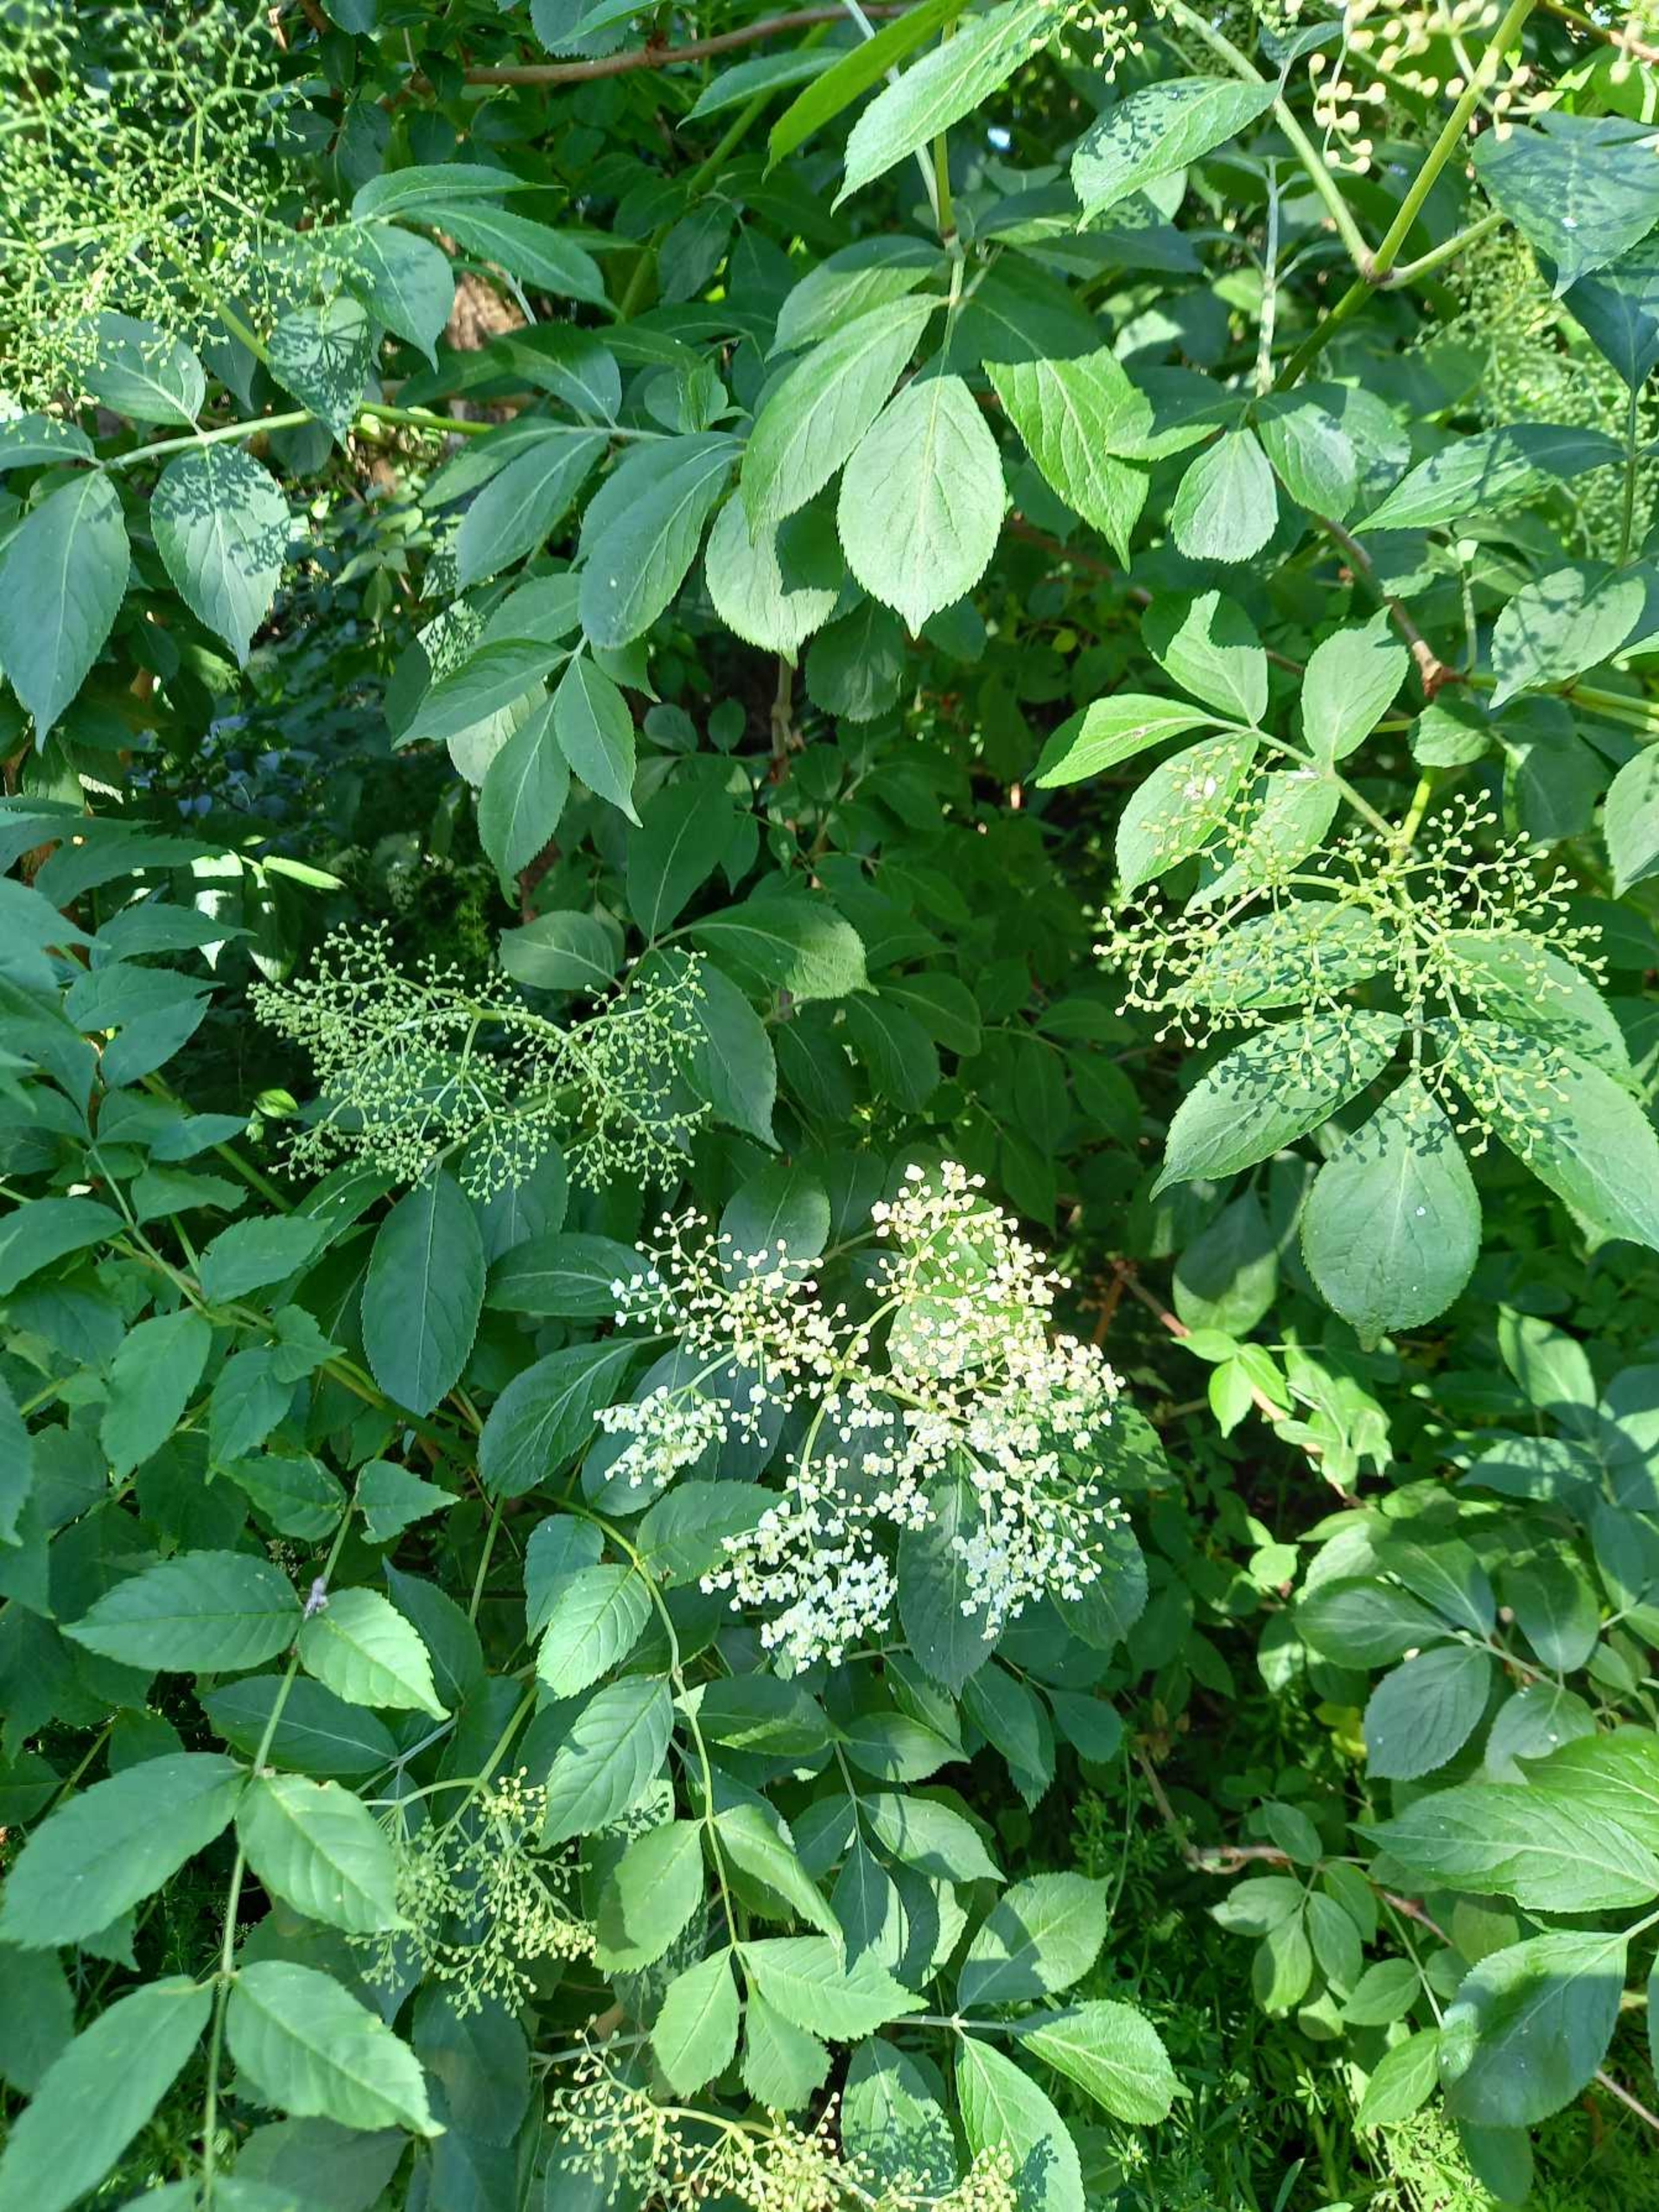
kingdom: Plantae
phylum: Tracheophyta
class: Magnoliopsida
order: Dipsacales
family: Viburnaceae
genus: Sambucus
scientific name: Sambucus nigra
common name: Almindelig hyld
